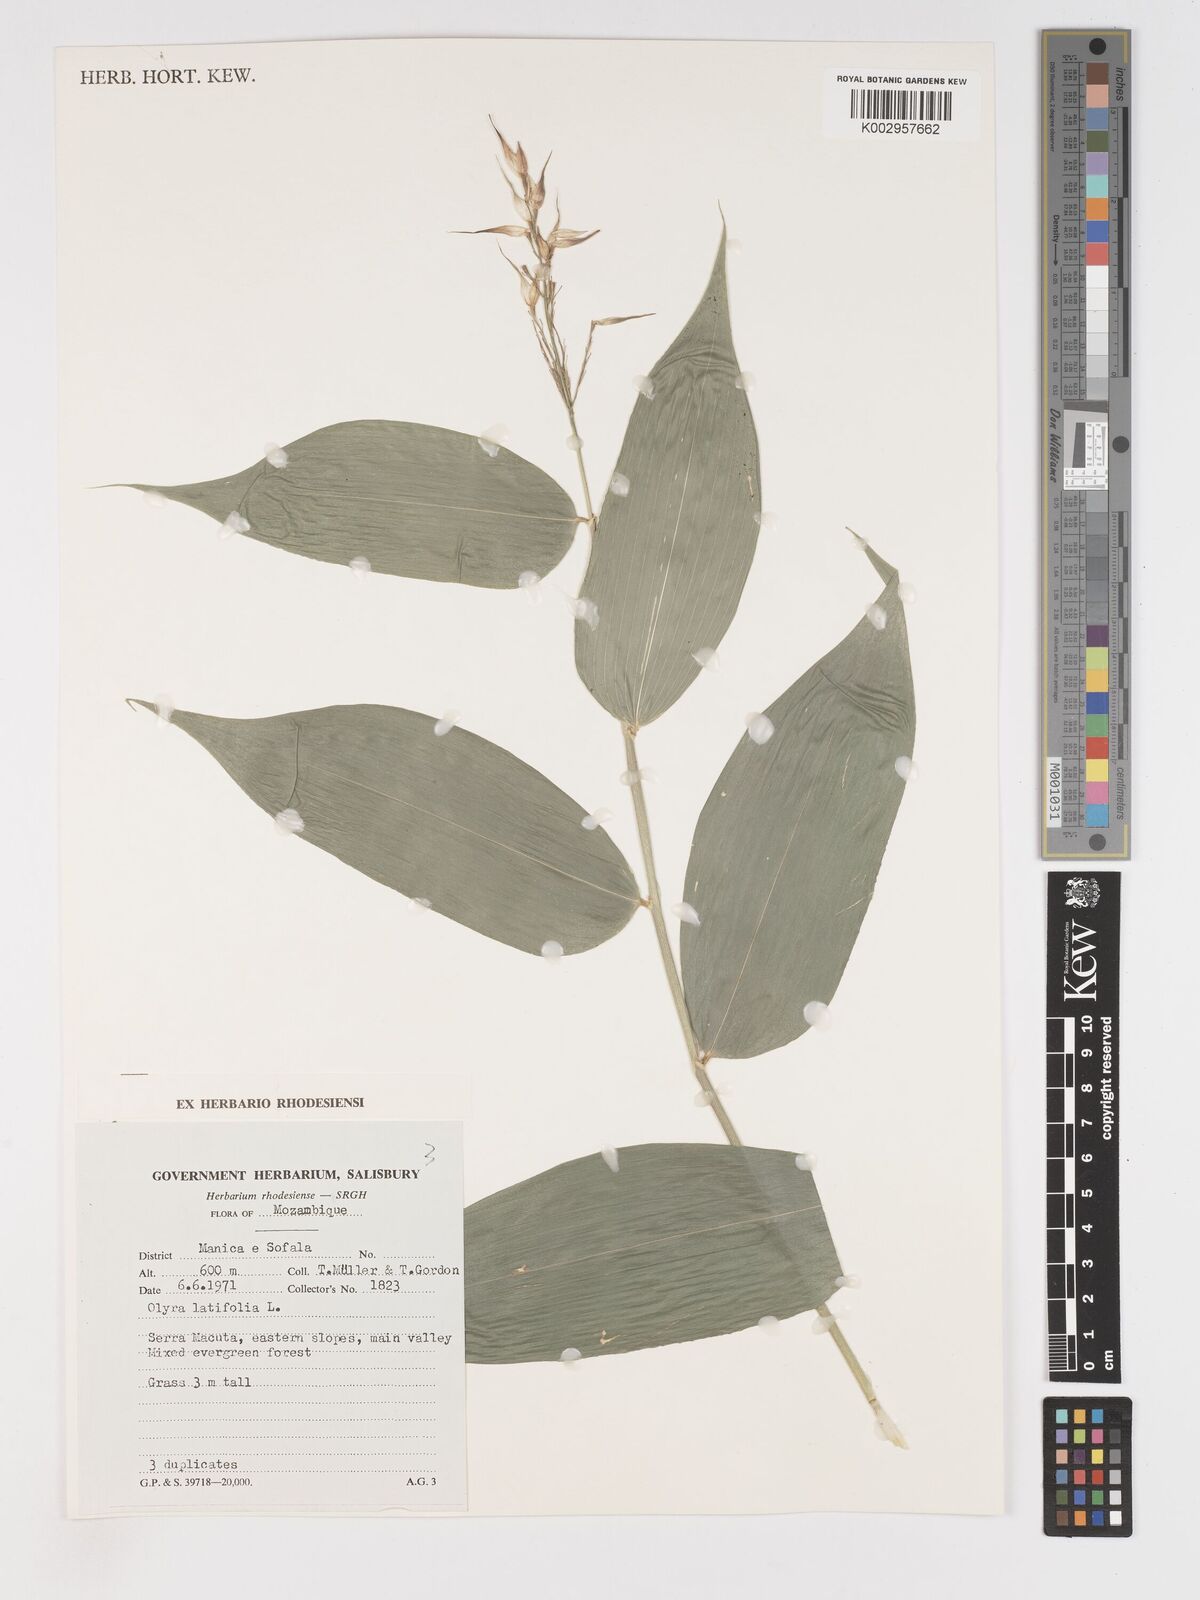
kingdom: Plantae
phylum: Tracheophyta
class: Liliopsida
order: Poales
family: Poaceae
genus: Olyra
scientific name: Olyra latifolia
